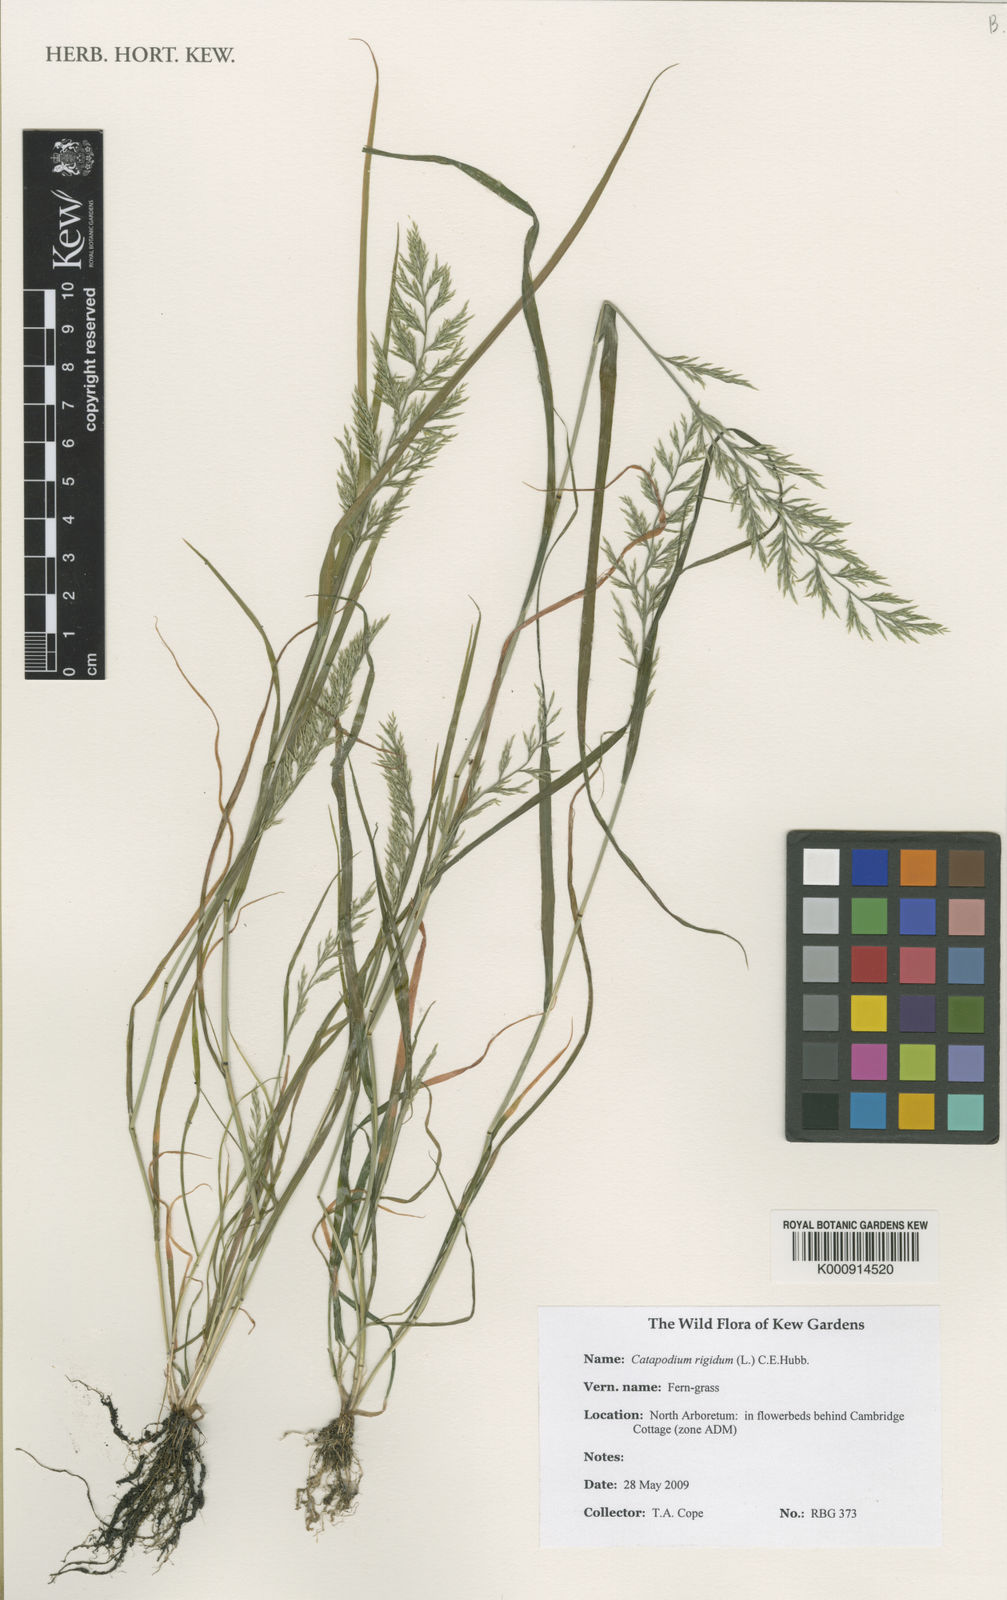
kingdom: Plantae
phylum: Tracheophyta
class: Liliopsida
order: Poales
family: Poaceae
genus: Catapodium
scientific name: Catapodium rigidum
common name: Fern-grass
